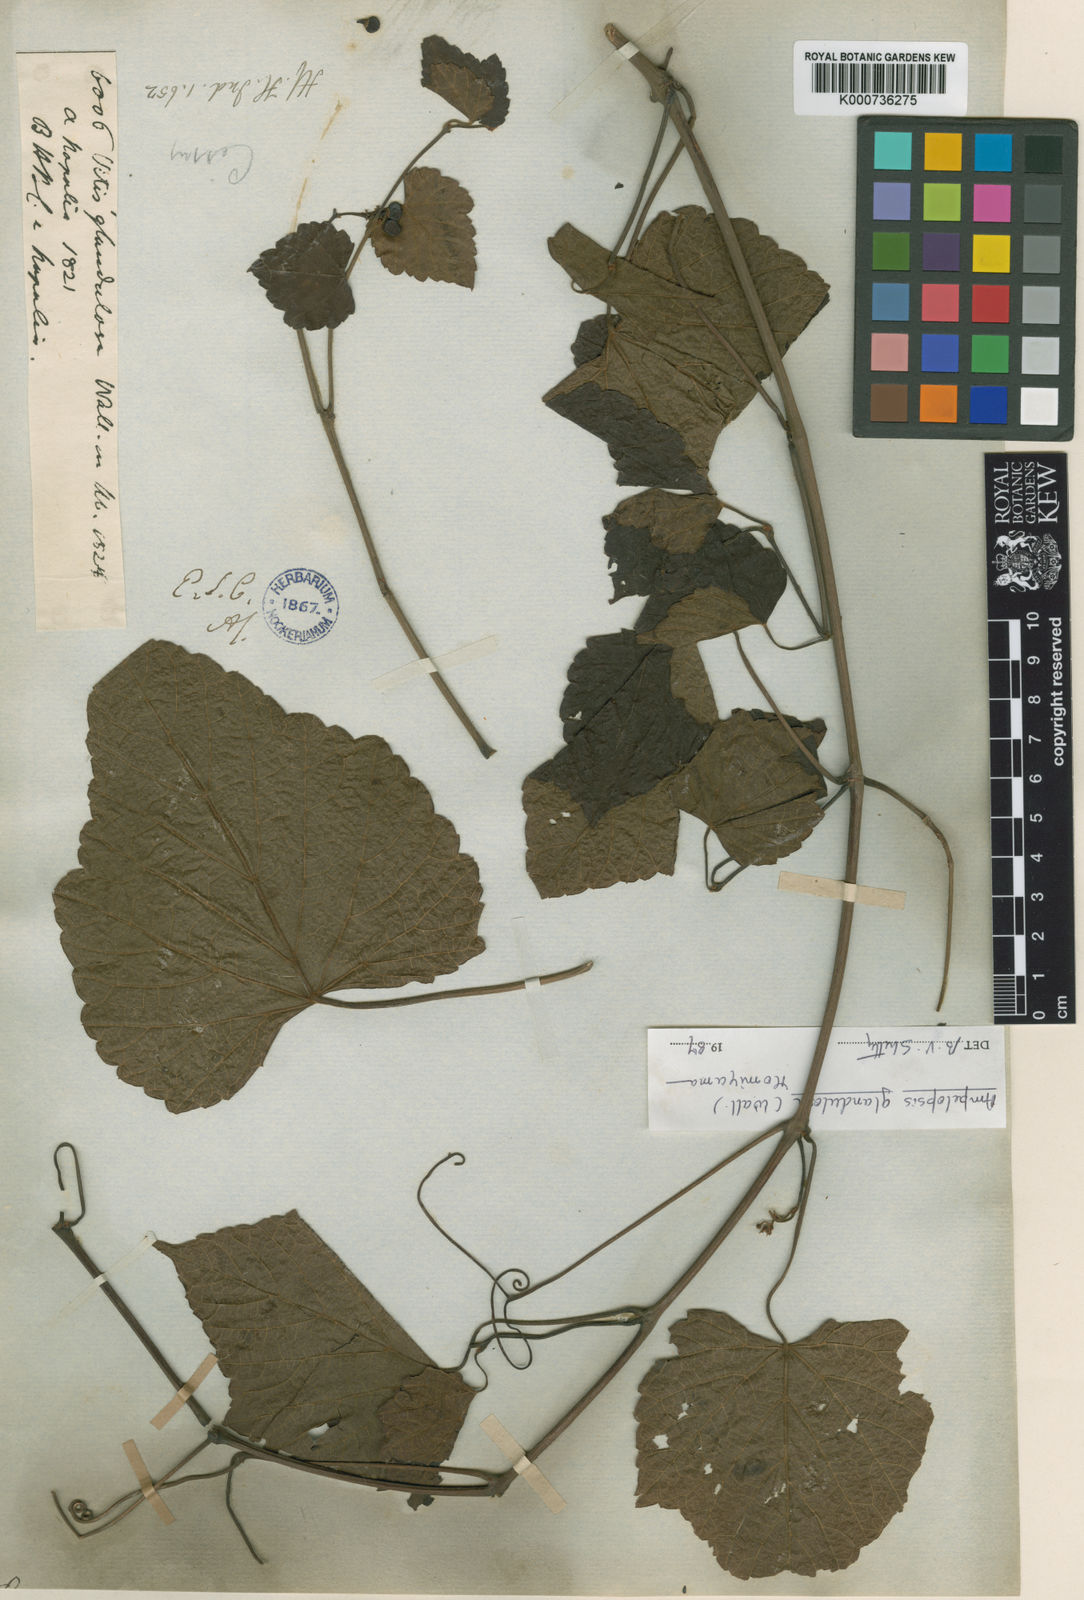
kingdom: Plantae
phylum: Tracheophyta
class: Magnoliopsida
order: Vitales
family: Vitaceae
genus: Ampelopsis
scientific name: Ampelopsis glandulosa
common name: Amur peppervine
